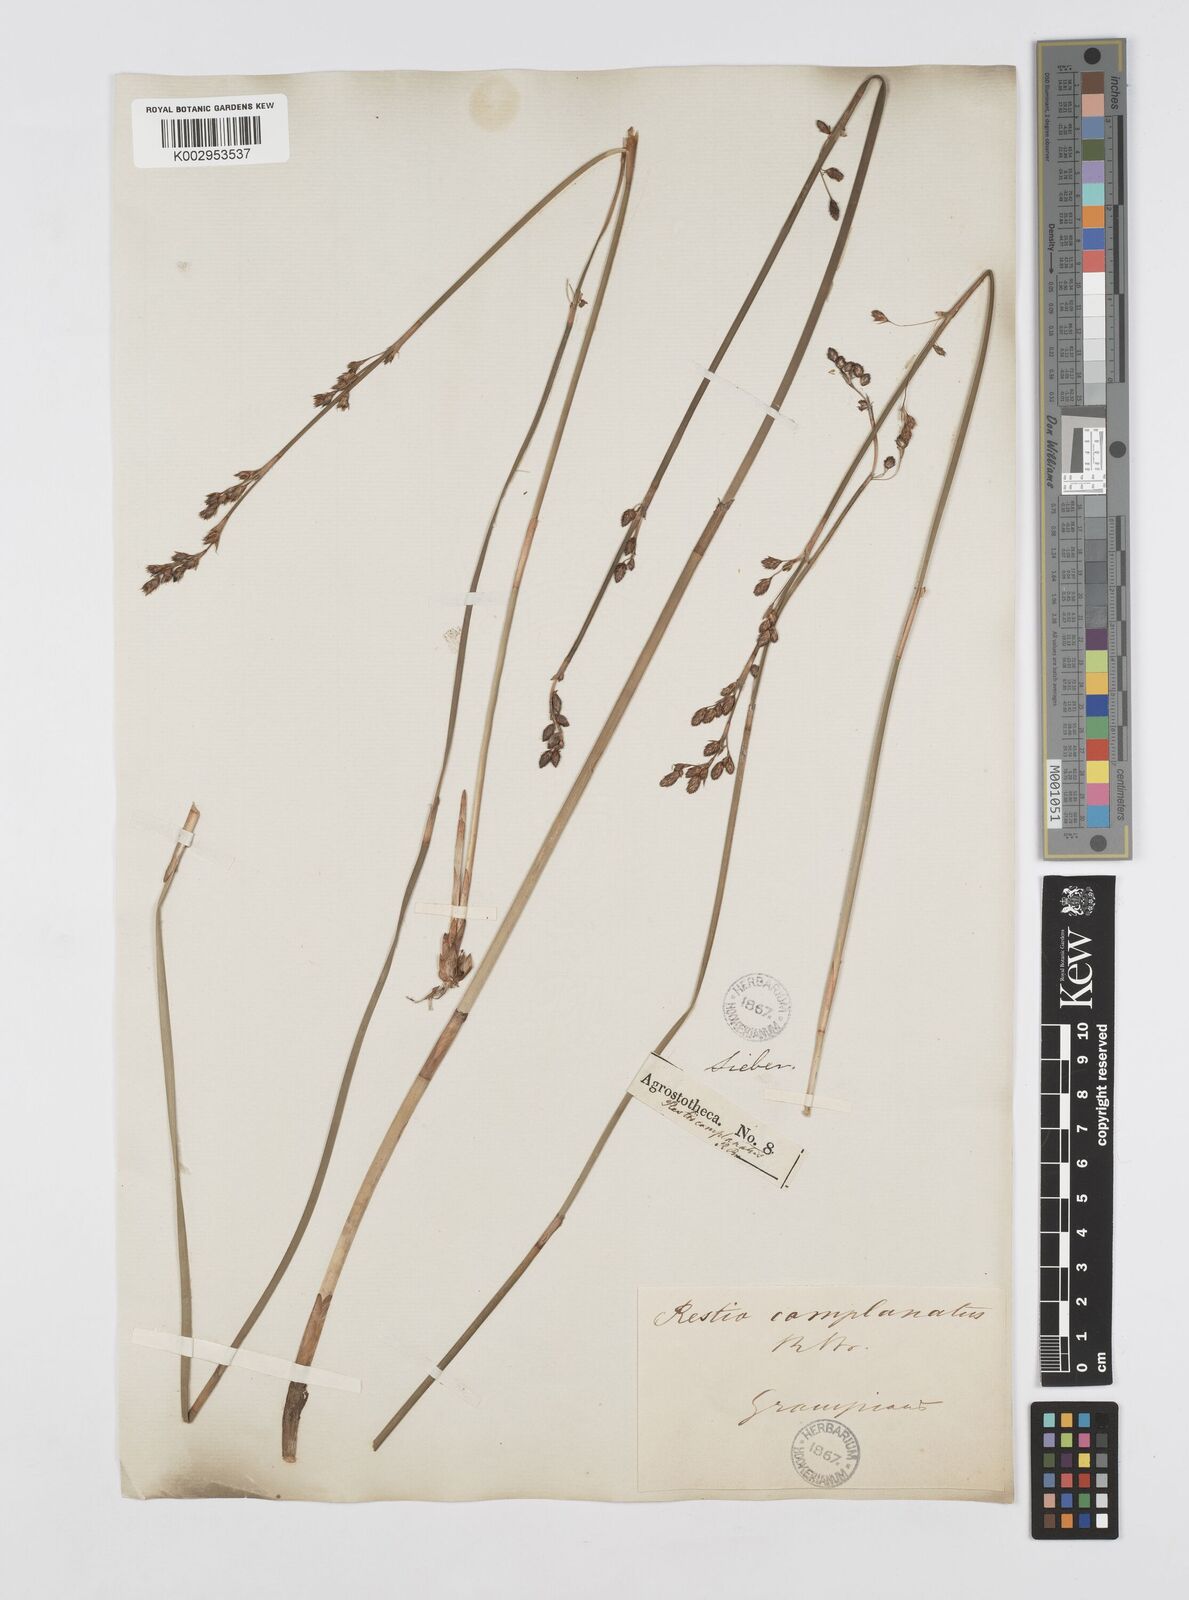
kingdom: Plantae
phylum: Tracheophyta
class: Liliopsida
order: Poales
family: Restionaceae
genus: Eurychorda
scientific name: Eurychorda complanata
